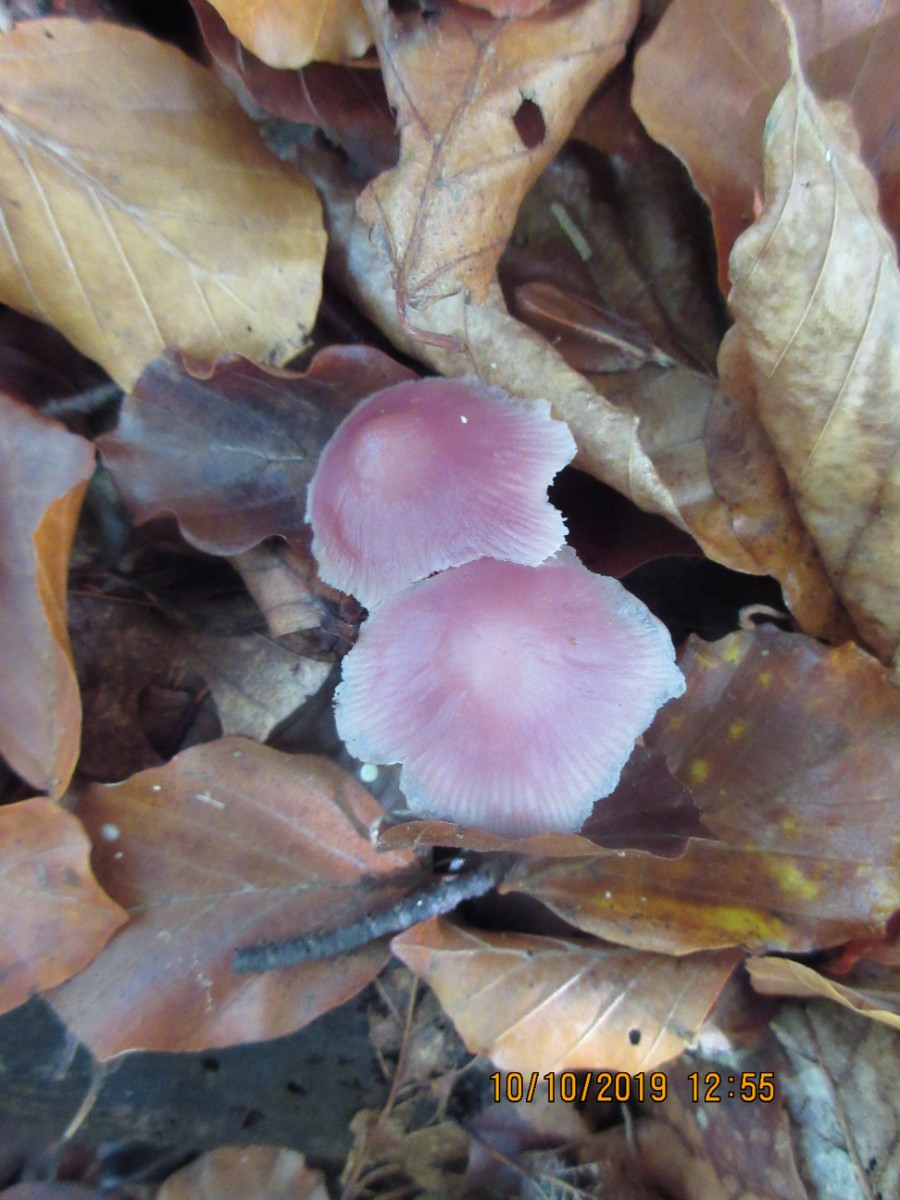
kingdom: Fungi
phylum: Basidiomycota
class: Agaricomycetes
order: Agaricales
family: Mycenaceae
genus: Mycena
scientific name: Mycena rosea
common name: rosa huesvamp
